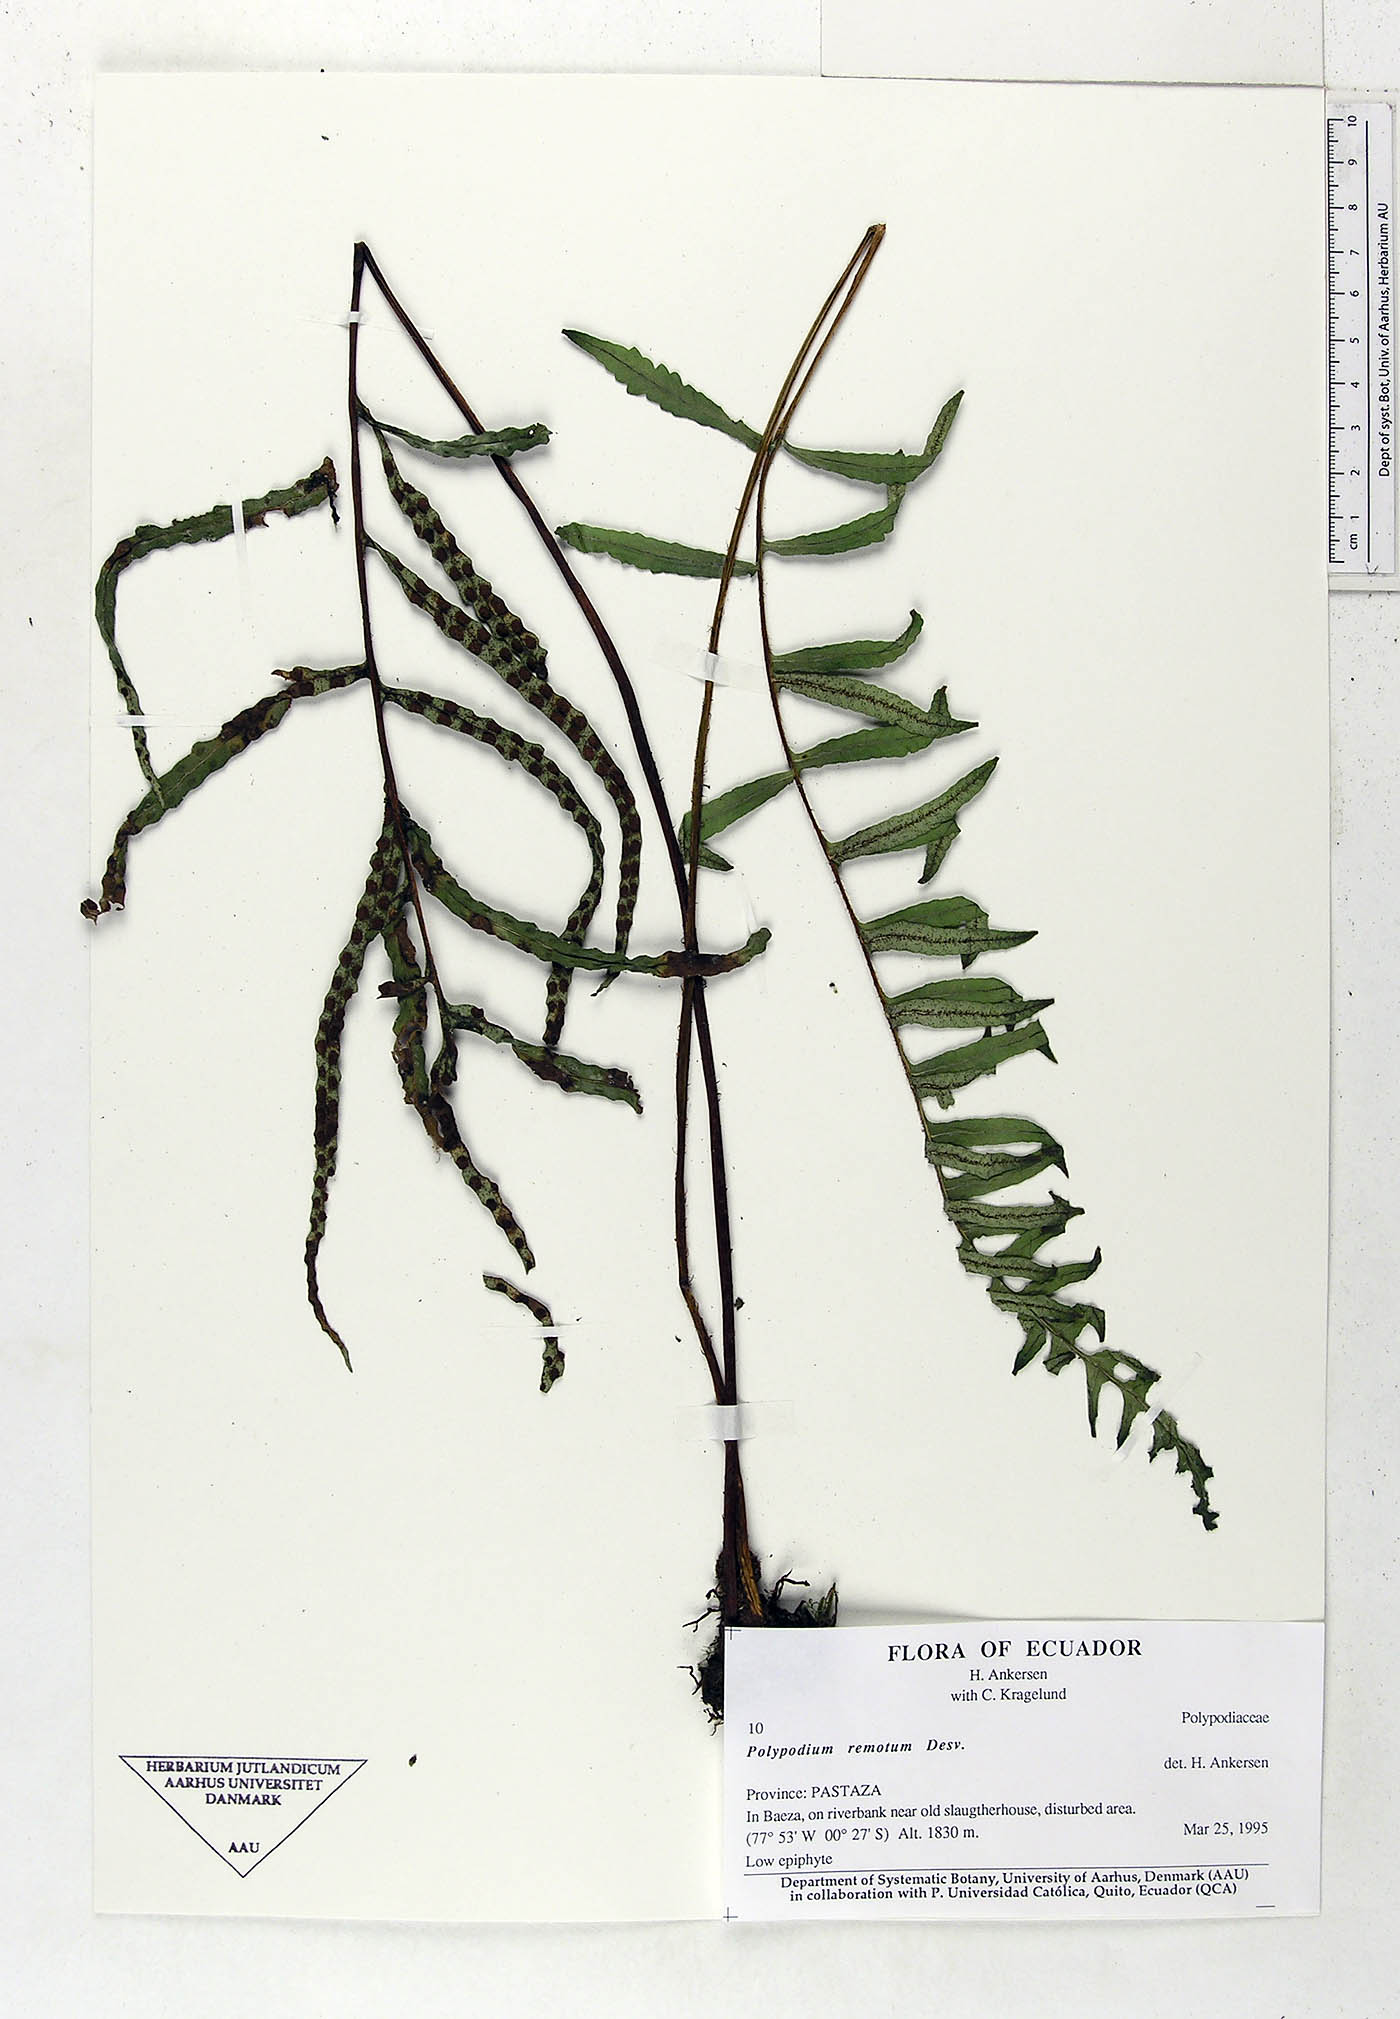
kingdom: Plantae
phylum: Tracheophyta
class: Polypodiopsida
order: Polypodiales
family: Polypodiaceae
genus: Pleopeltis
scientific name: Pleopeltis remota
